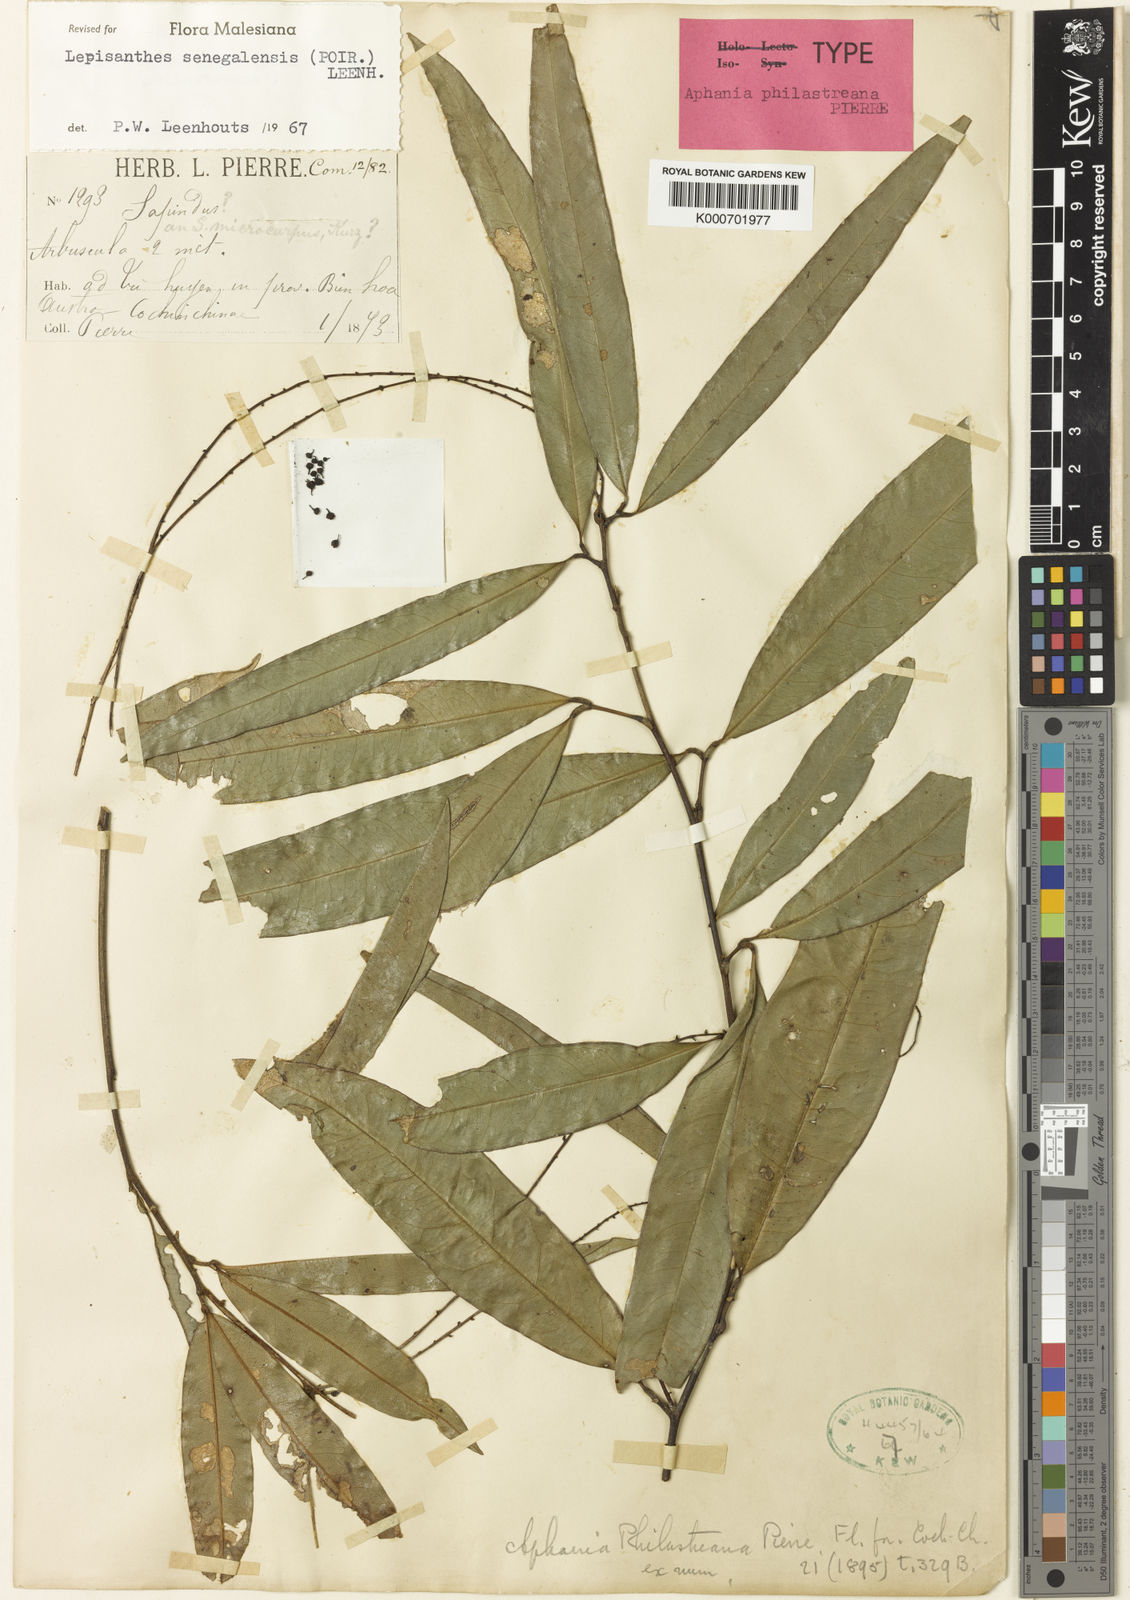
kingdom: Plantae
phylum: Tracheophyta
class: Magnoliopsida
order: Sapindales
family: Sapindaceae
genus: Lepisanthes
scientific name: Lepisanthes senegalensis
